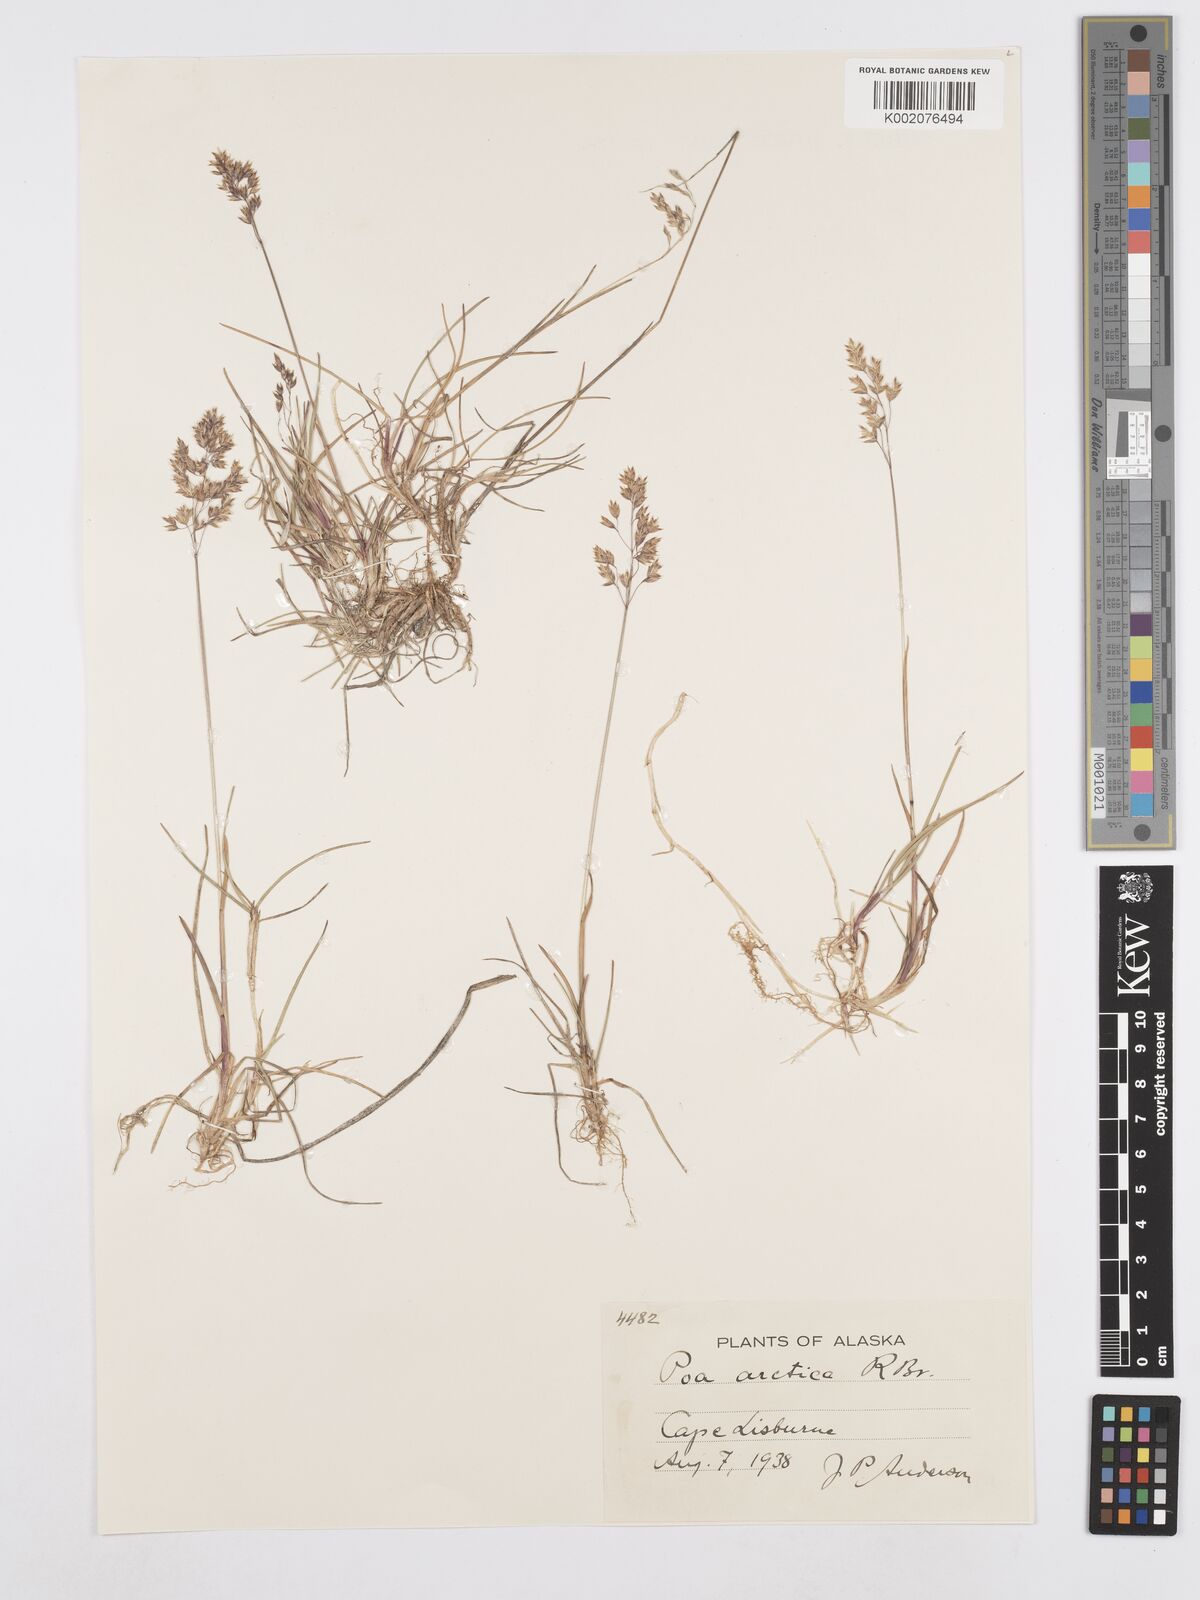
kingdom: Plantae
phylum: Tracheophyta
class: Liliopsida
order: Poales
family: Poaceae
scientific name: Poaceae
